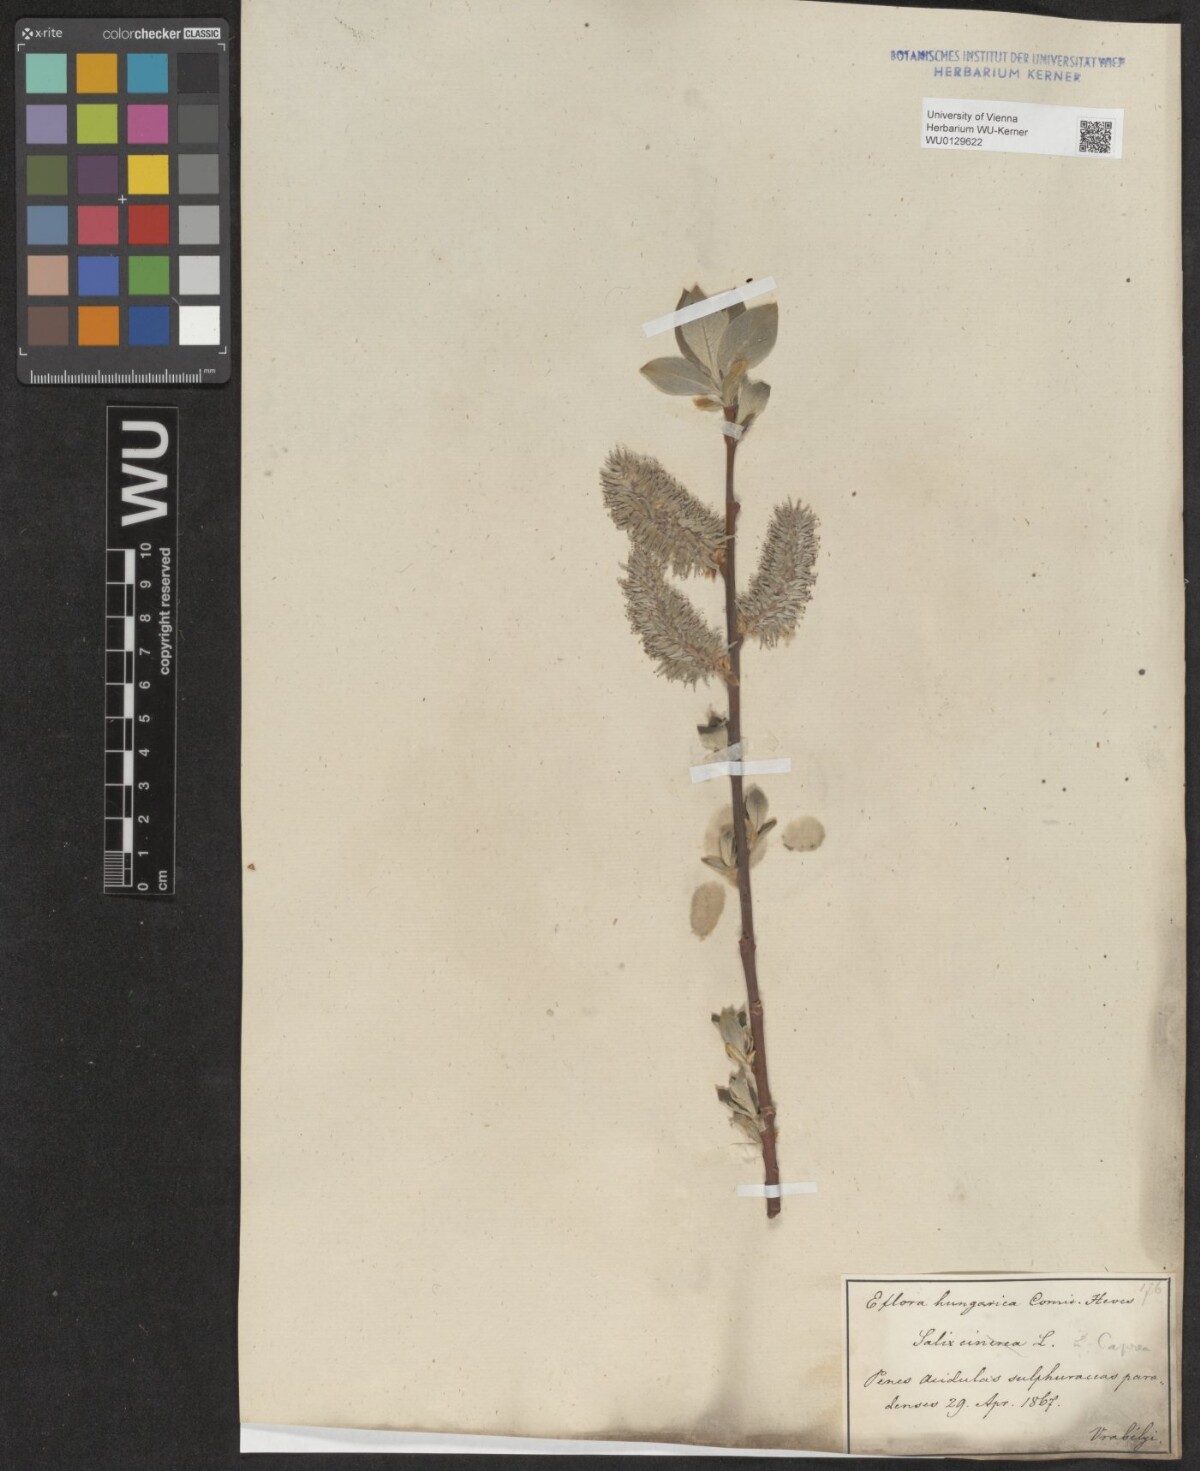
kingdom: Plantae
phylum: Tracheophyta
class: Magnoliopsida
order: Malpighiales
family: Salicaceae
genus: Salix
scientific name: Salix caprea
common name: Goat willow
